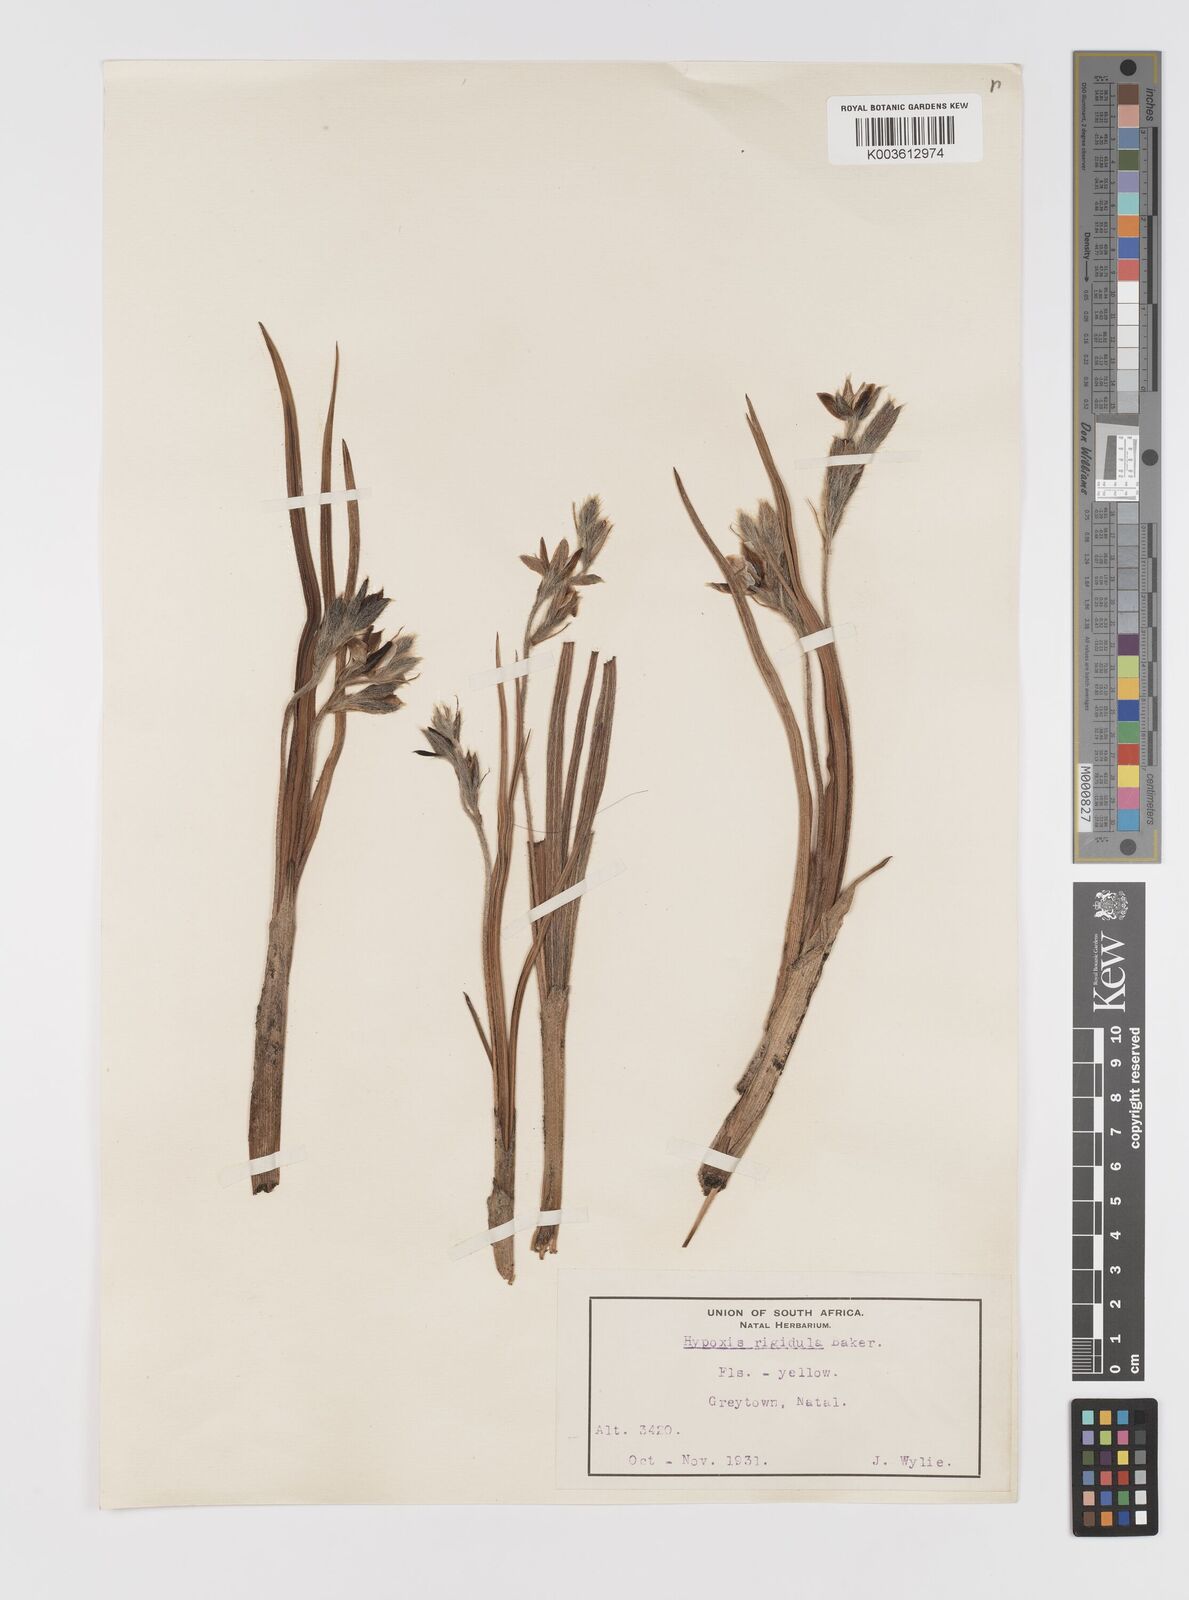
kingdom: Plantae
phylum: Tracheophyta
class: Liliopsida
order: Asparagales
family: Hypoxidaceae
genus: Hypoxis
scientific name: Hypoxis rigidula
